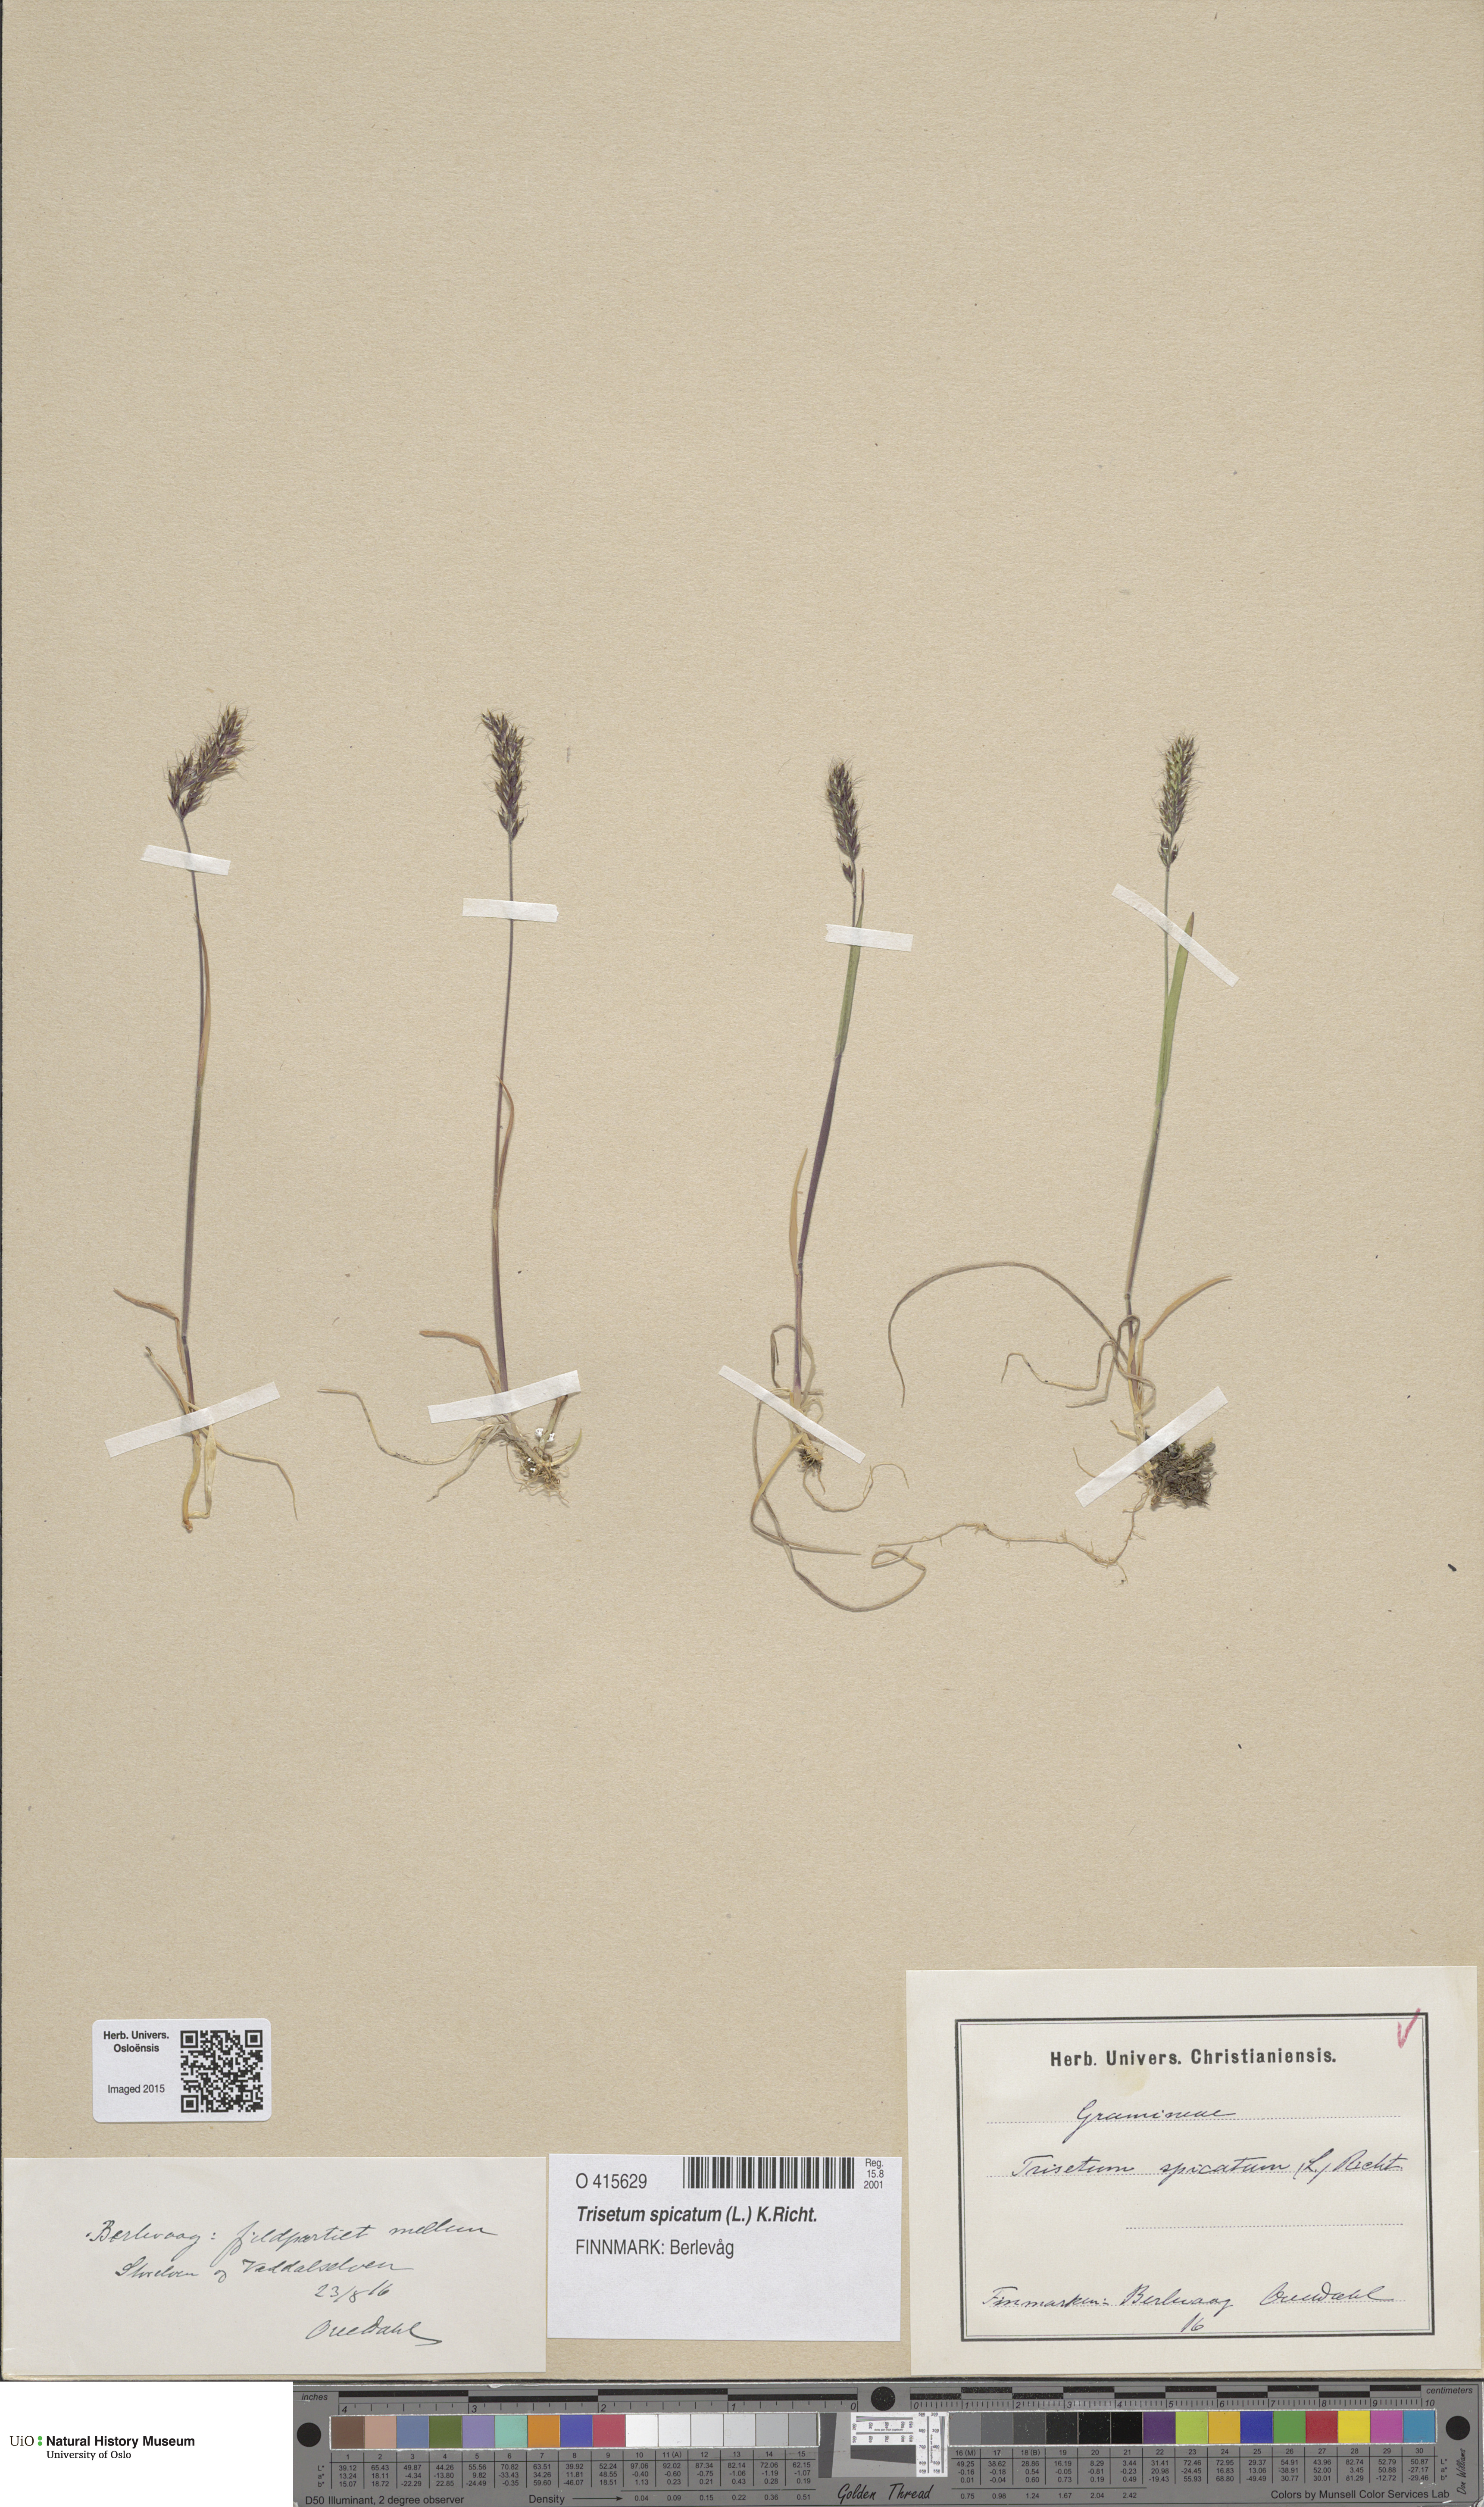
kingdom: Plantae
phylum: Tracheophyta
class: Liliopsida
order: Poales
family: Poaceae
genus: Koeleria
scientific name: Koeleria spicata
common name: Mountain trisetum
